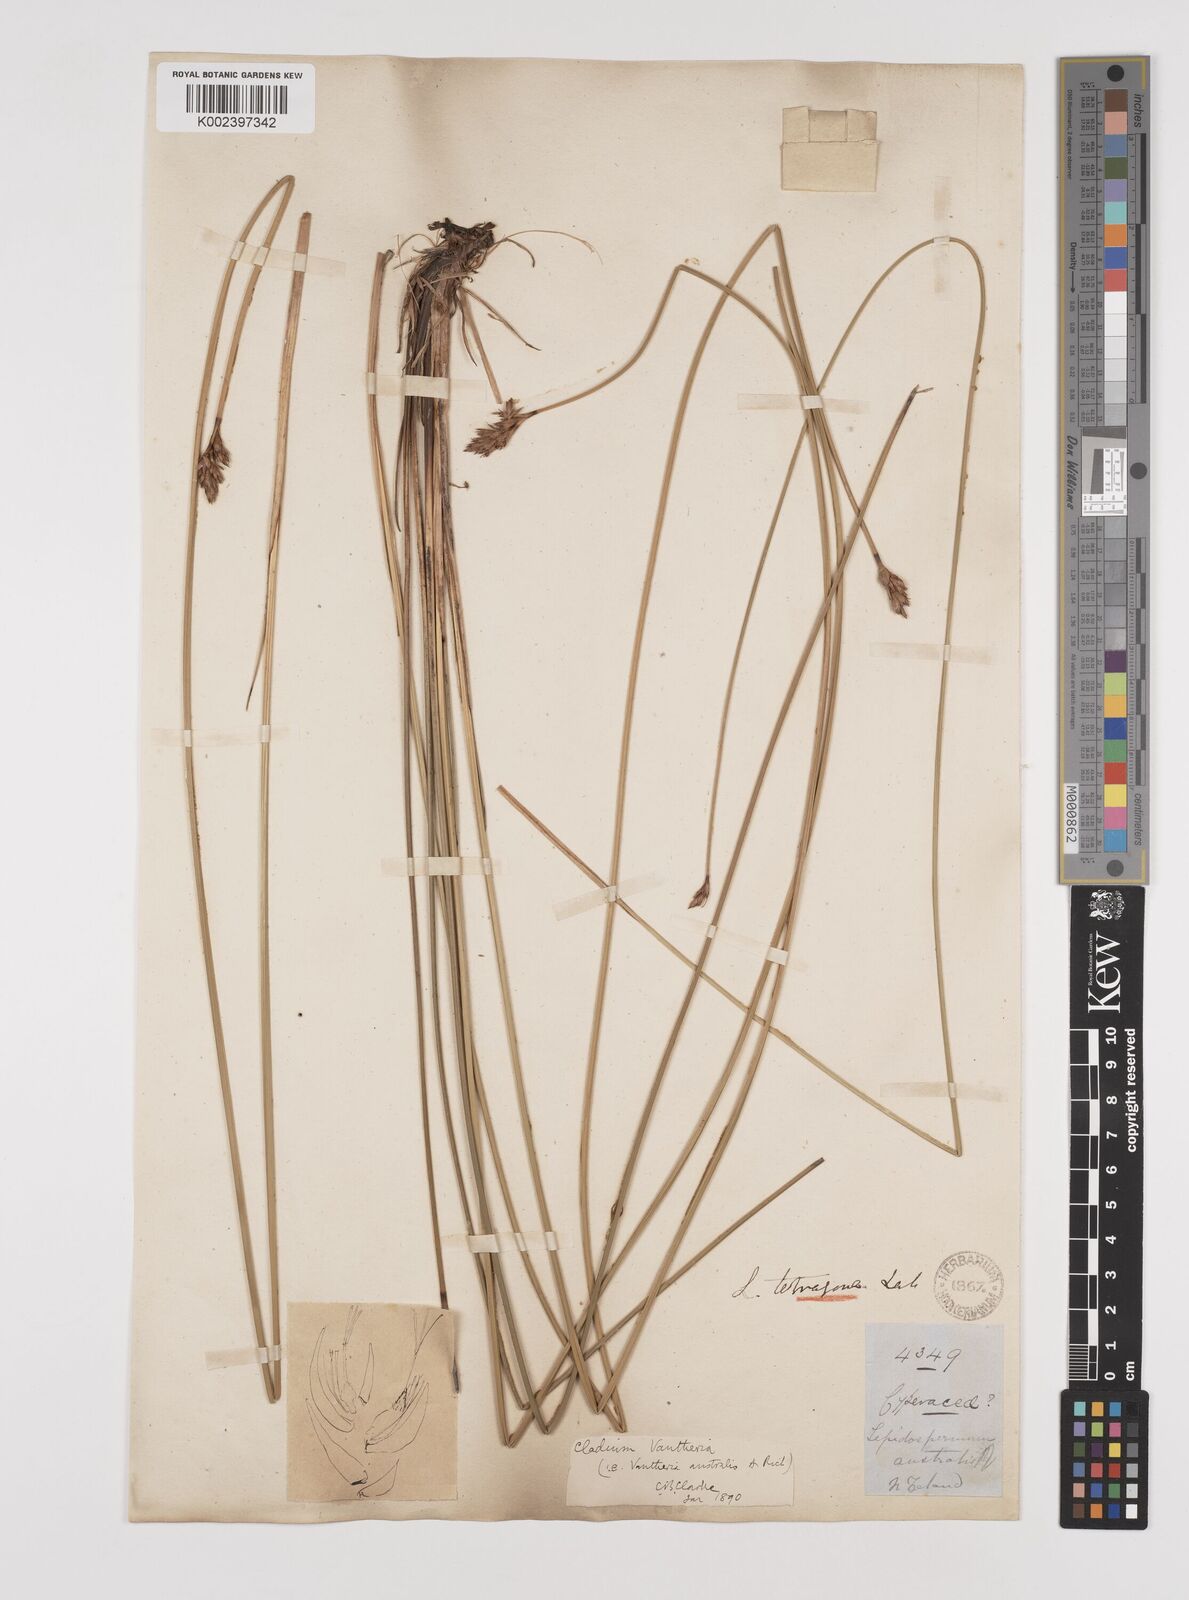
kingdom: Plantae
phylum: Tracheophyta
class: Liliopsida
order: Poales
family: Cyperaceae
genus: Lepidosperma
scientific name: Lepidosperma australe
